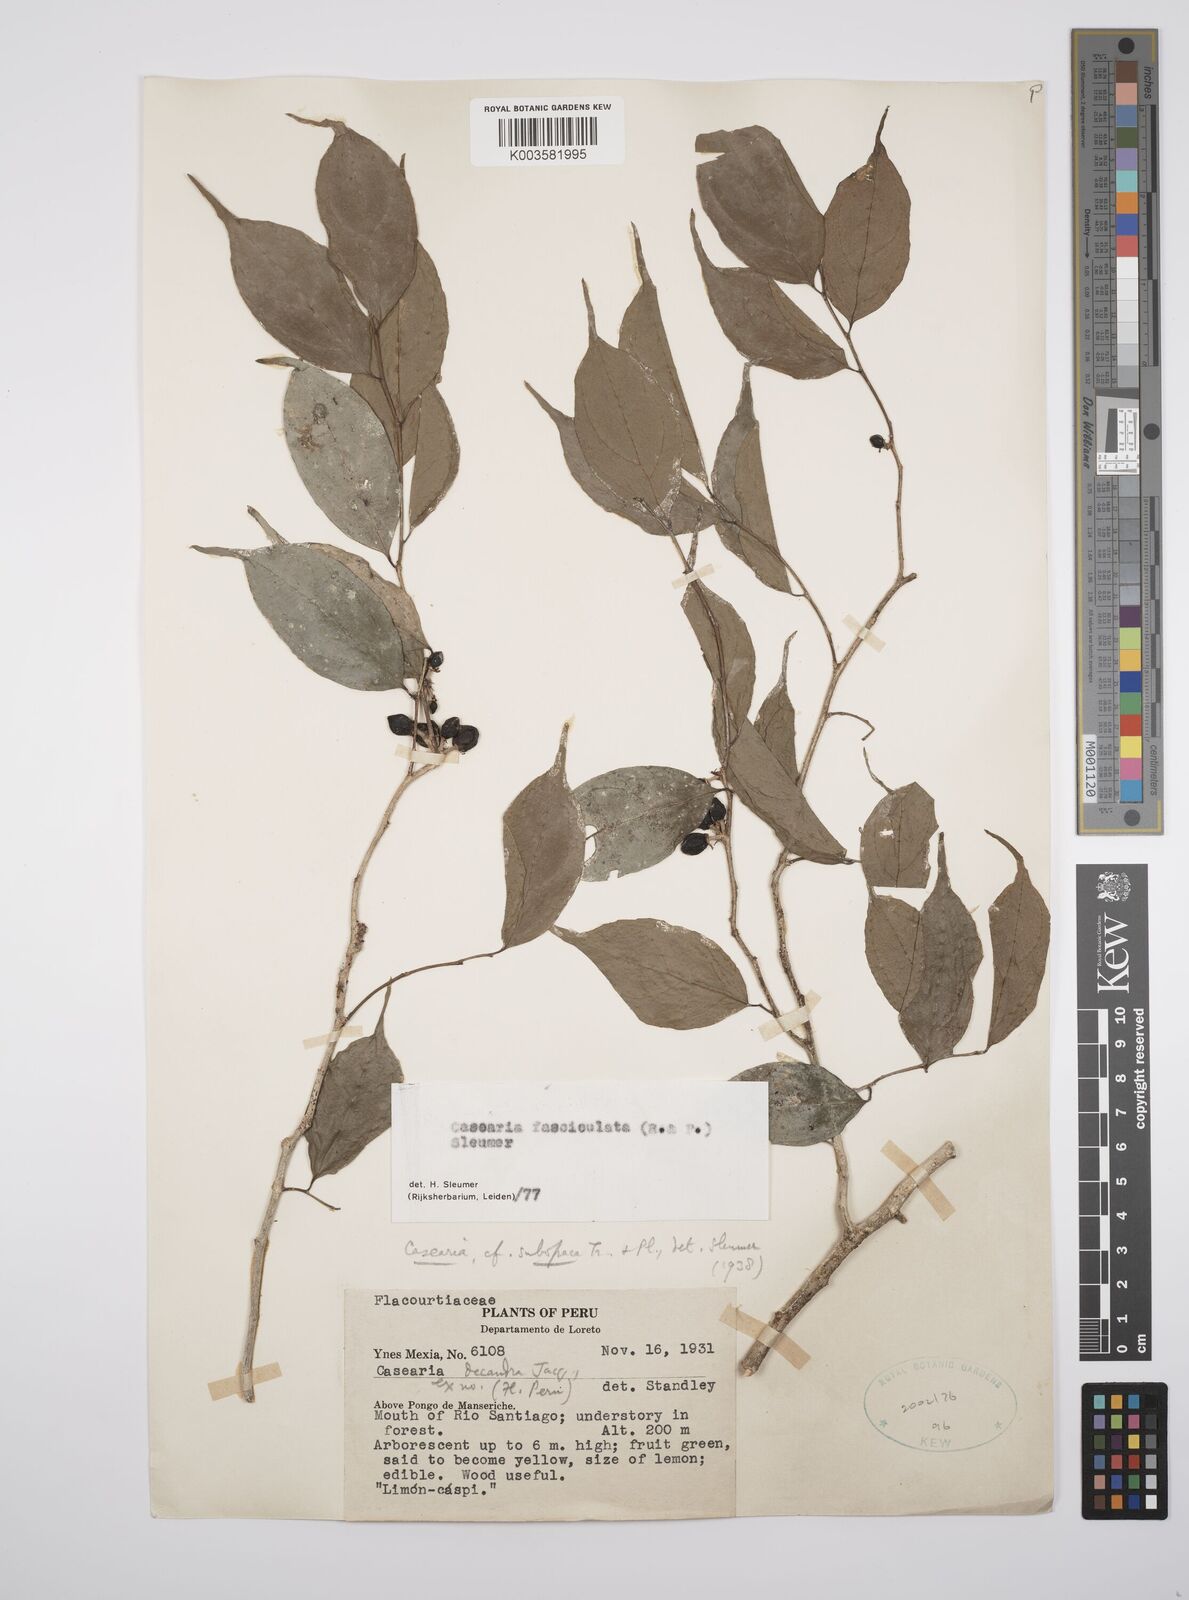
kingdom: Plantae
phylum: Tracheophyta
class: Magnoliopsida
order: Malpighiales
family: Salicaceae
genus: Casearia
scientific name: Casearia
